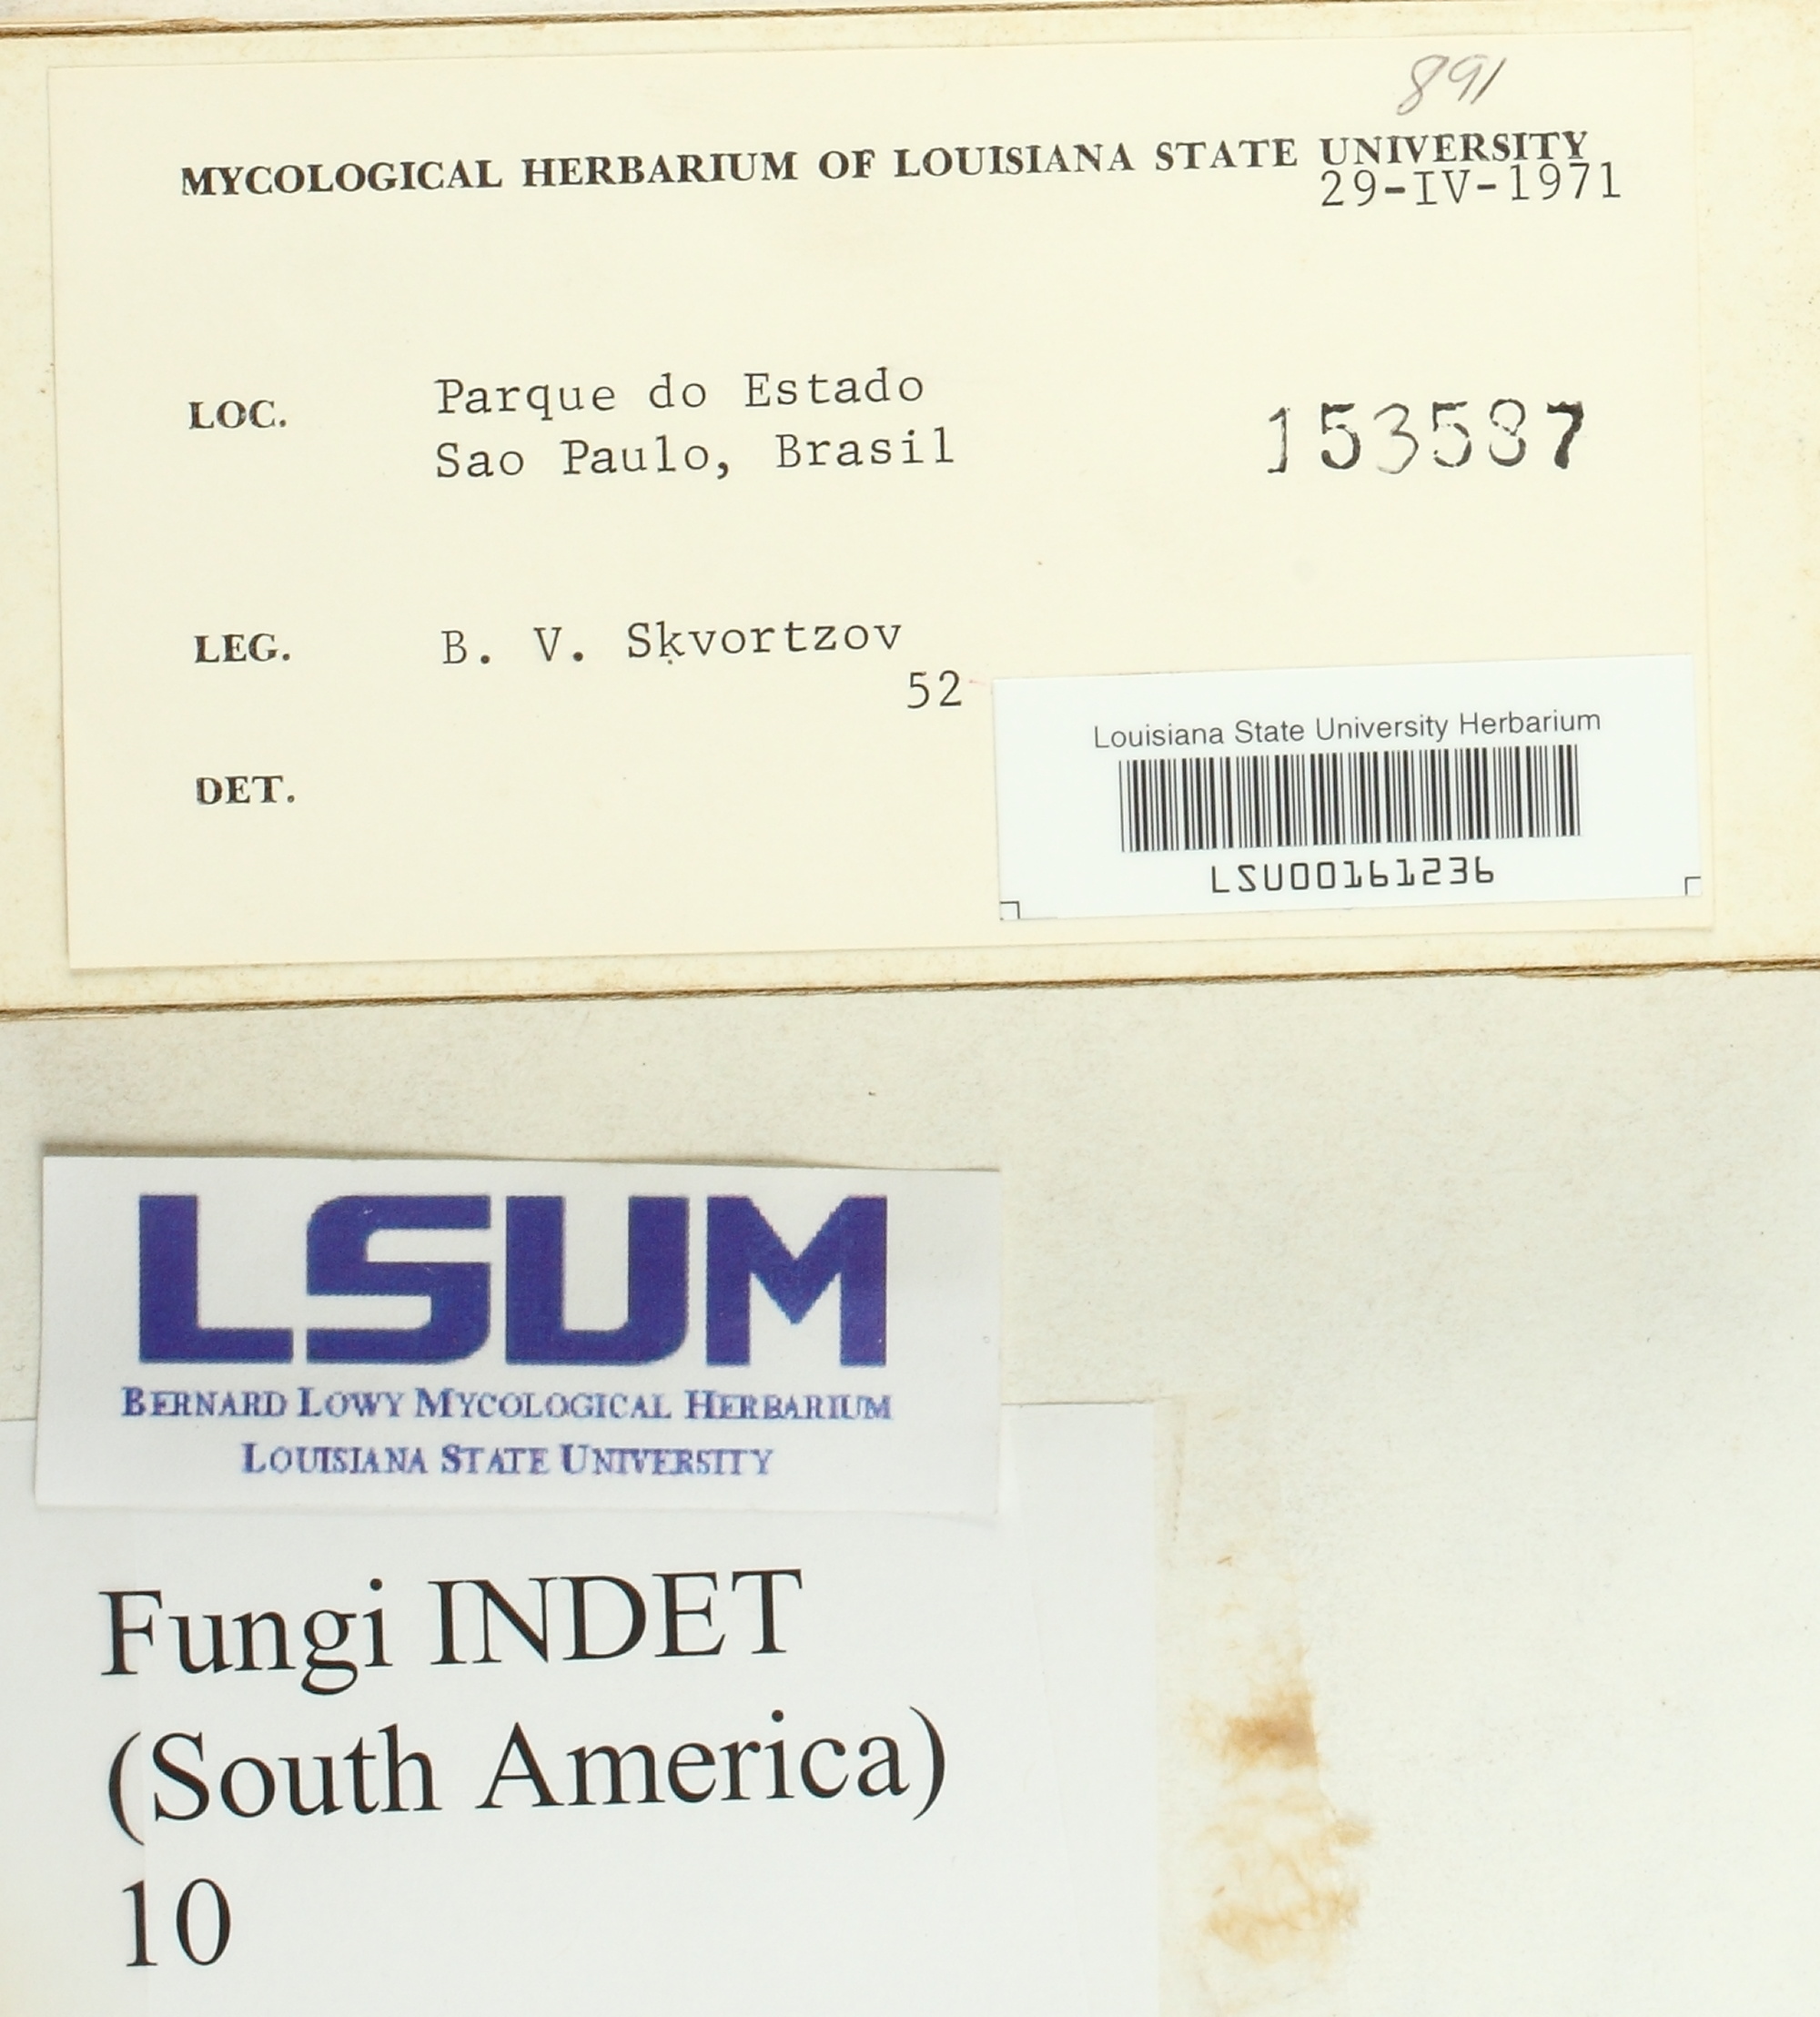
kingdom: Fungi
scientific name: Fungi
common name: Fungi
